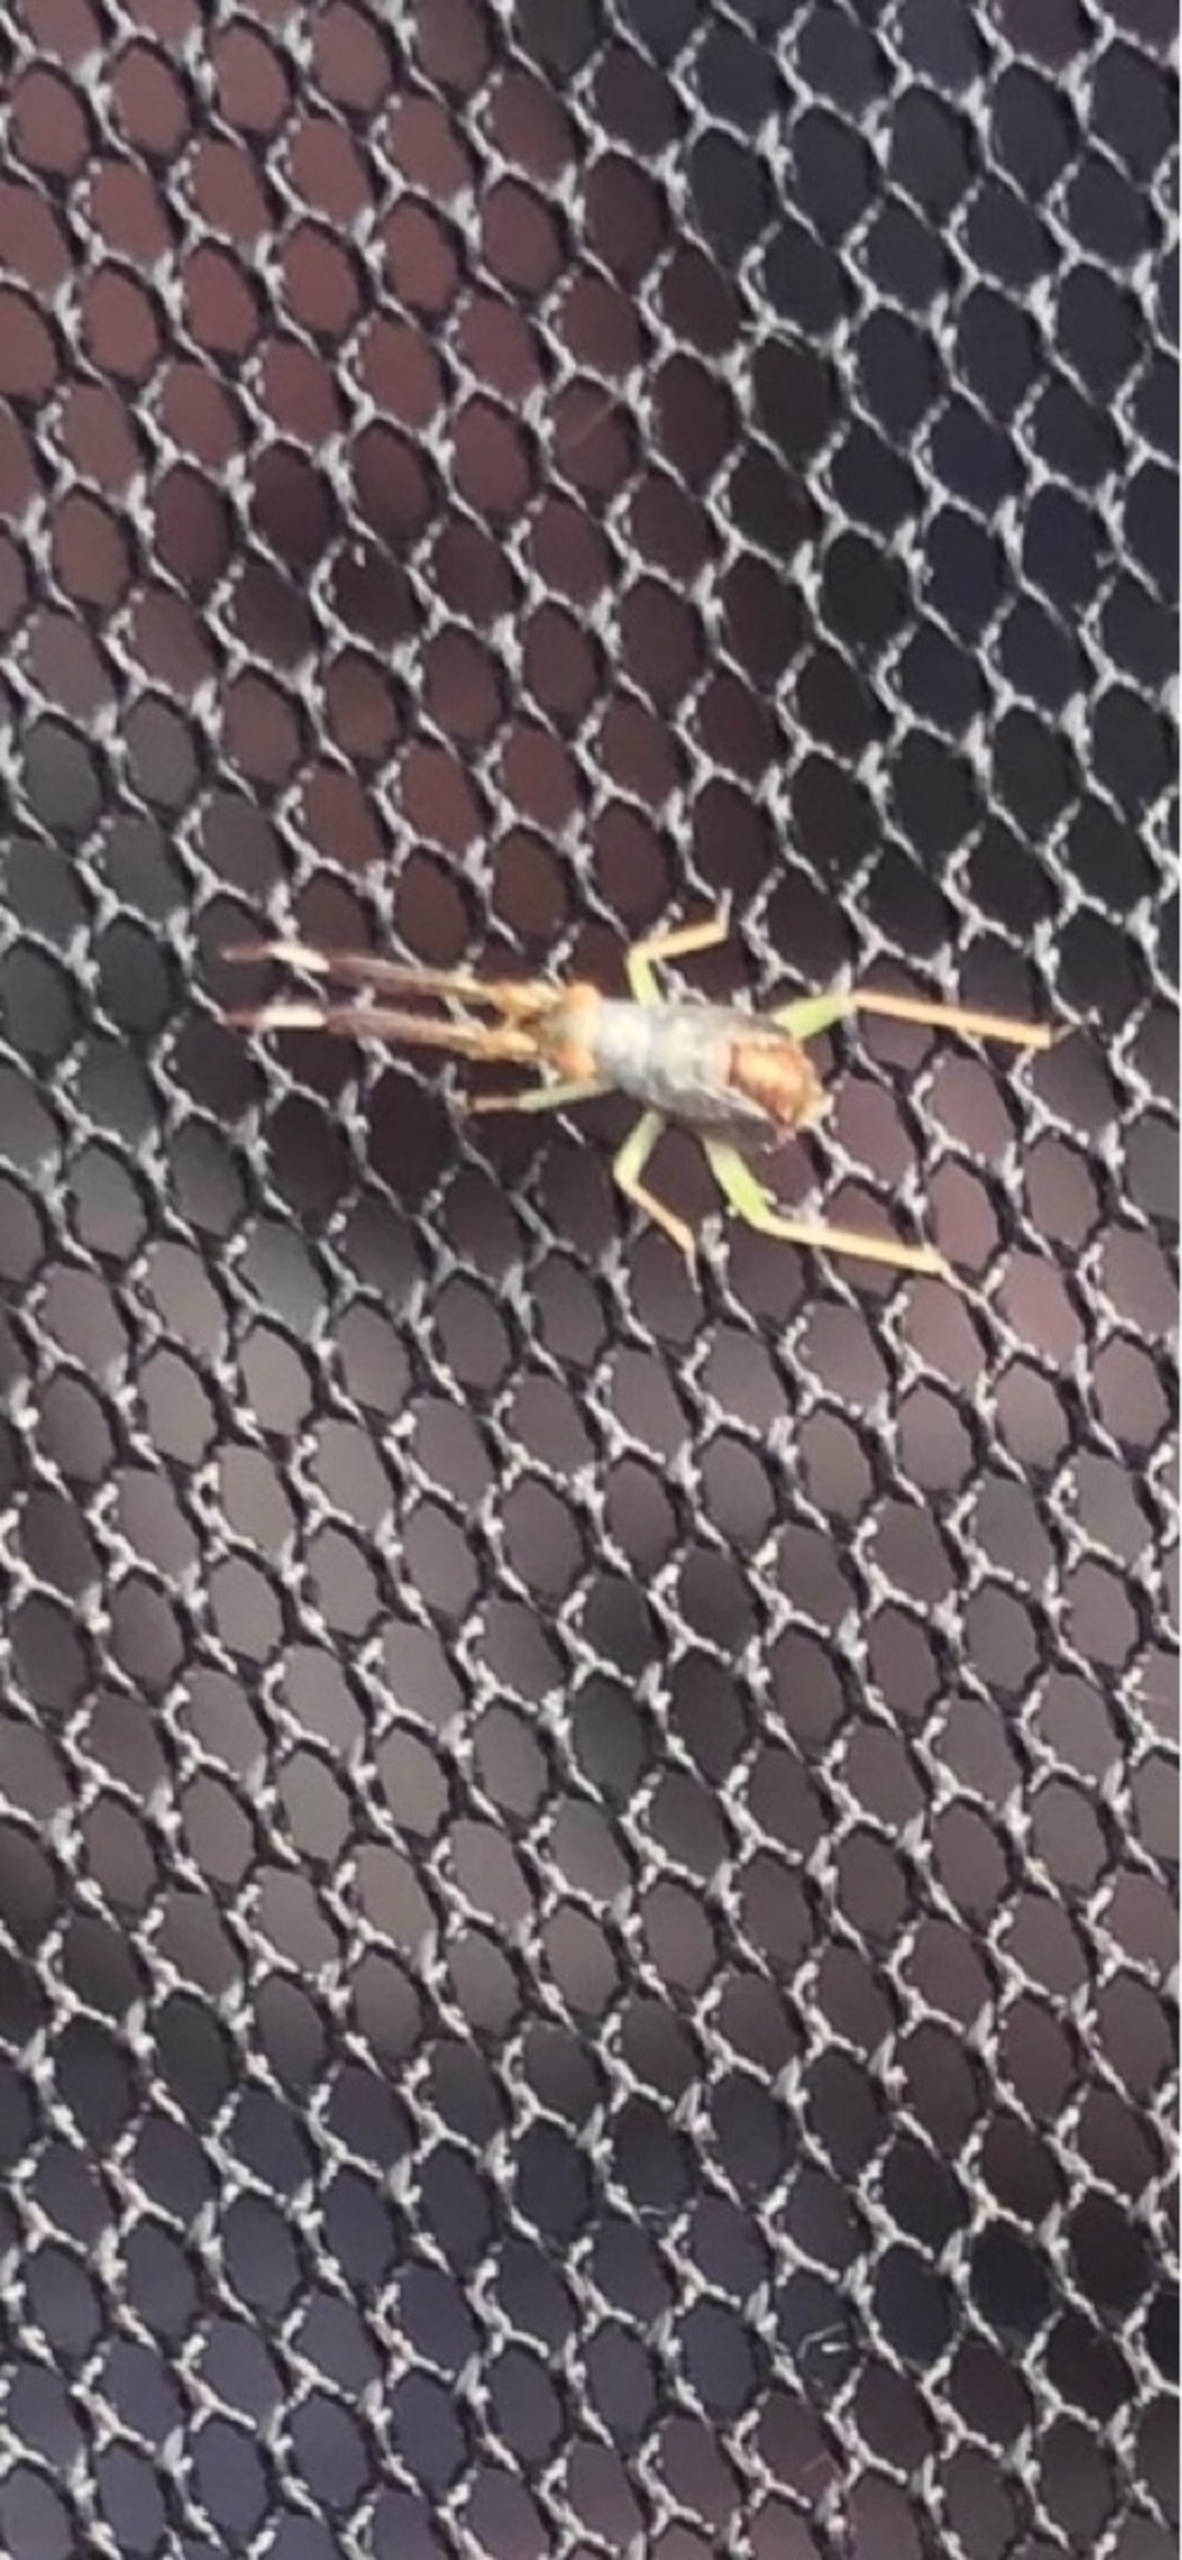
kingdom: Animalia
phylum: Arthropoda
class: Insecta
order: Hemiptera
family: Miridae
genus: Heterotoma
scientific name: Heterotoma planicornis
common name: Køllehornet blomstertæge
